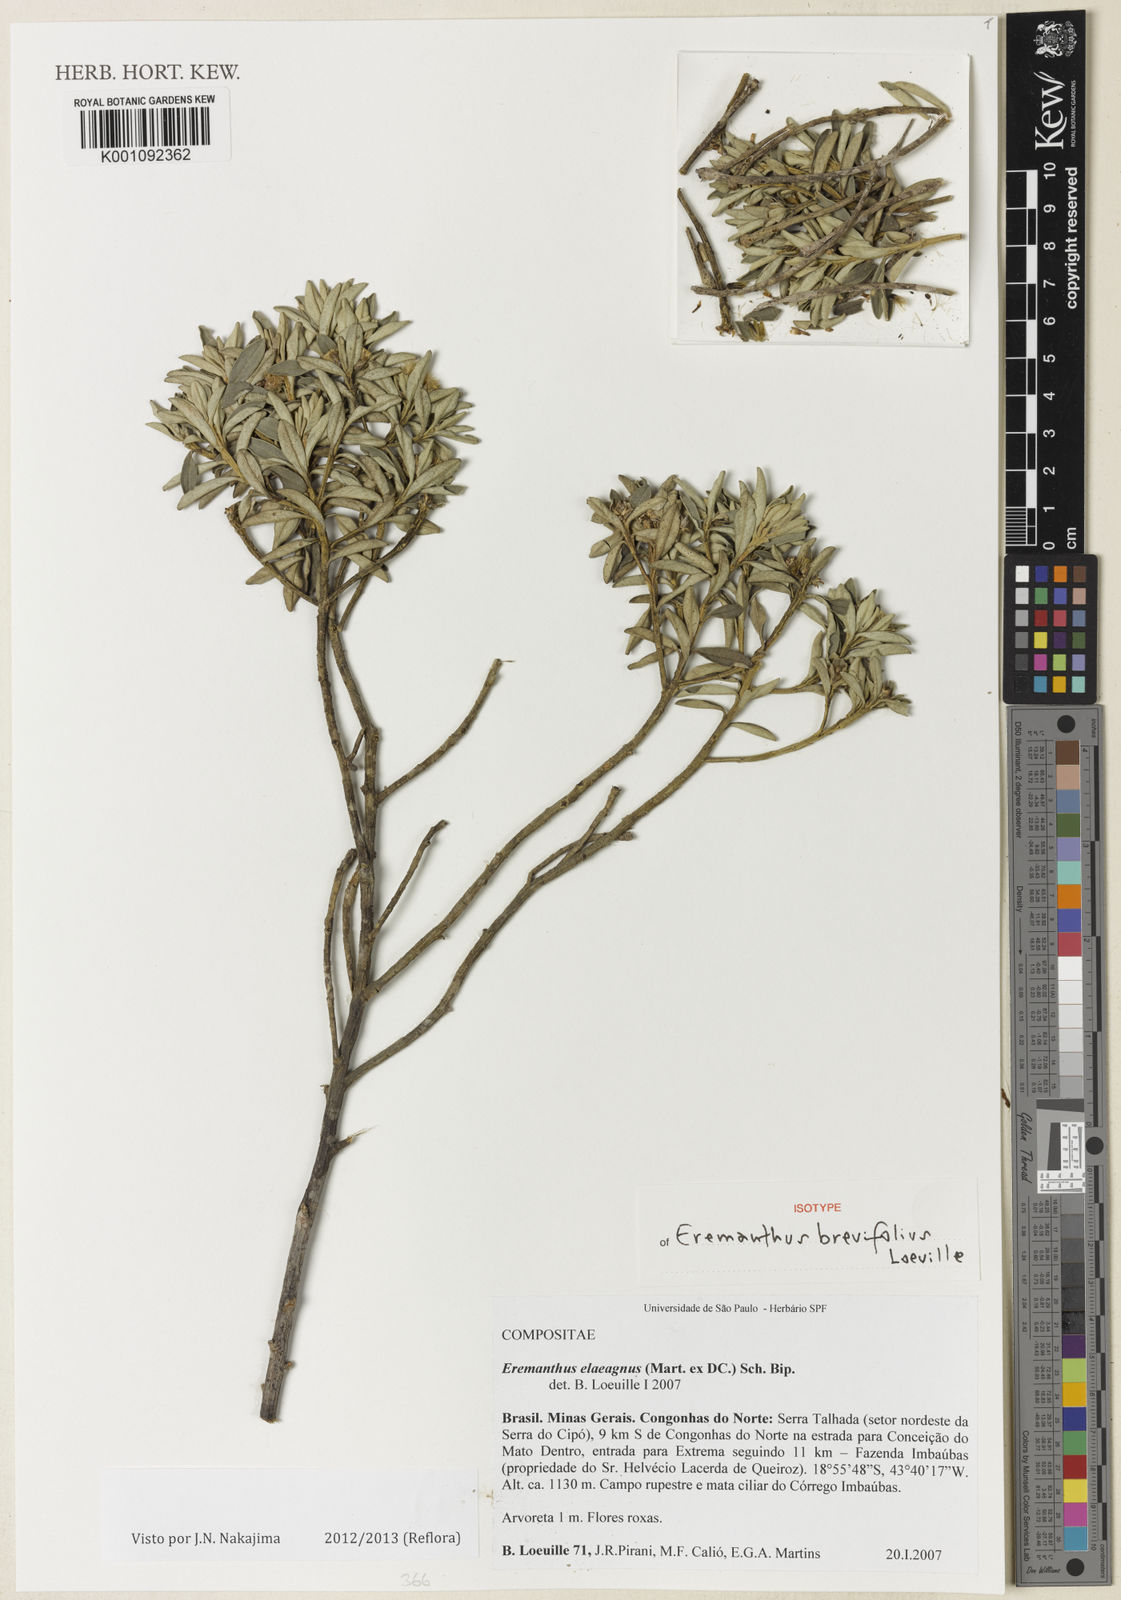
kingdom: Plantae
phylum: Tracheophyta
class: Magnoliopsida
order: Asterales
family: Asteraceae
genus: Eremanthus
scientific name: Eremanthus brevifolius
